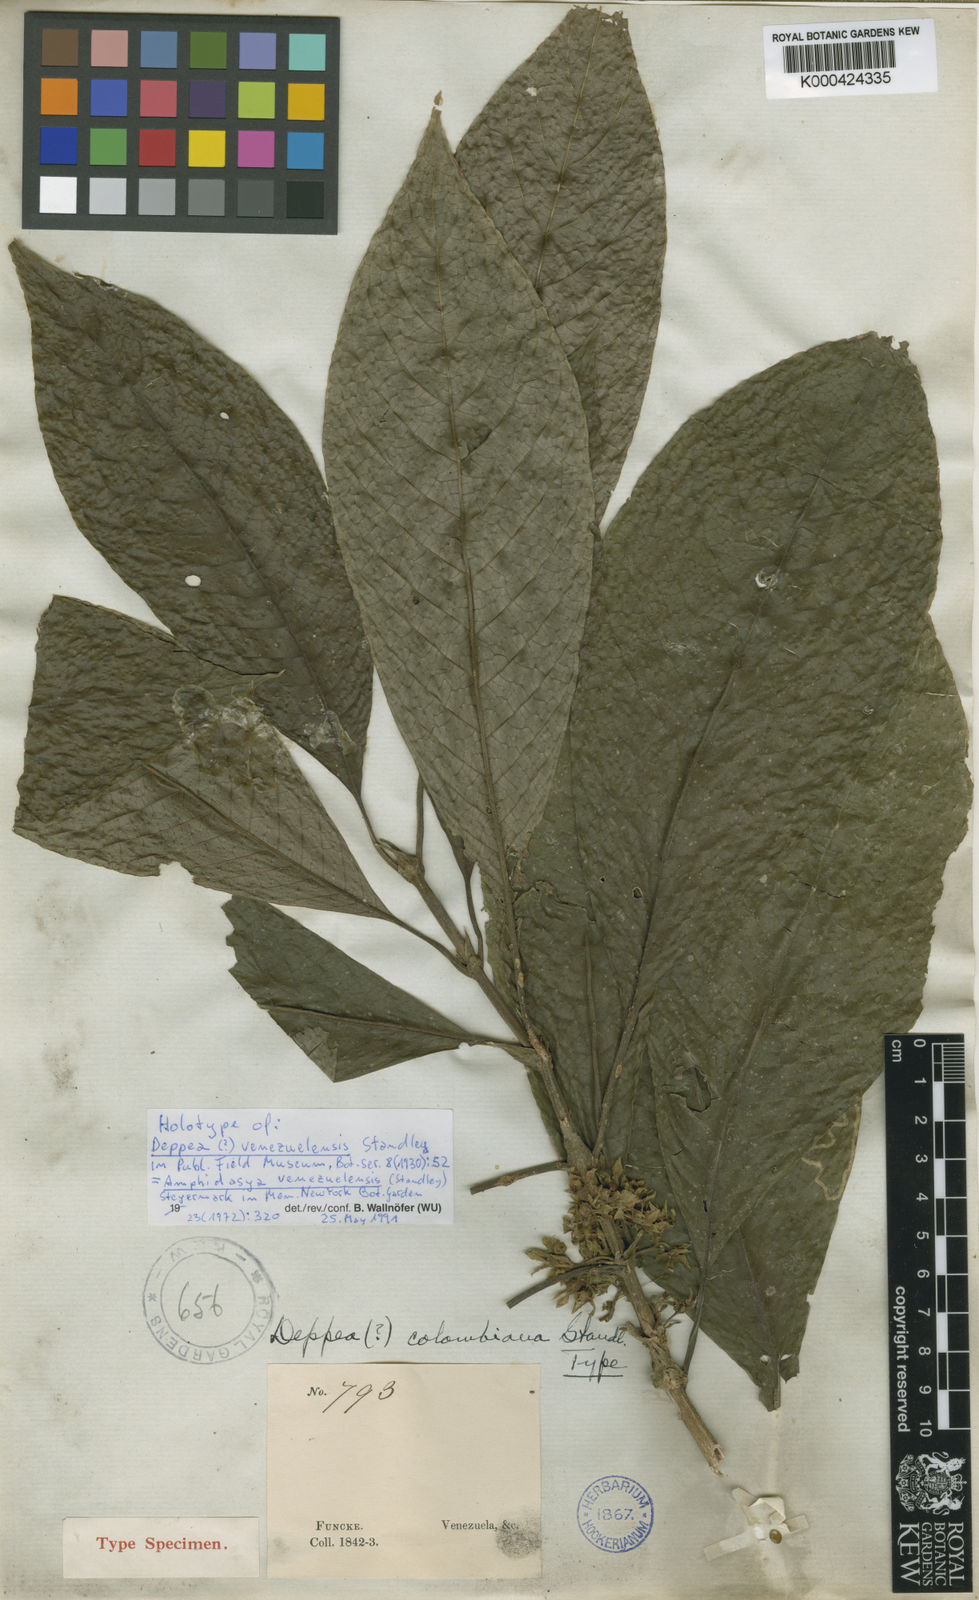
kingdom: Plantae
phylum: Tracheophyta
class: Magnoliopsida
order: Gentianales
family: Rubiaceae
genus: Amphidasya
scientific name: Amphidasya venezuelensis
